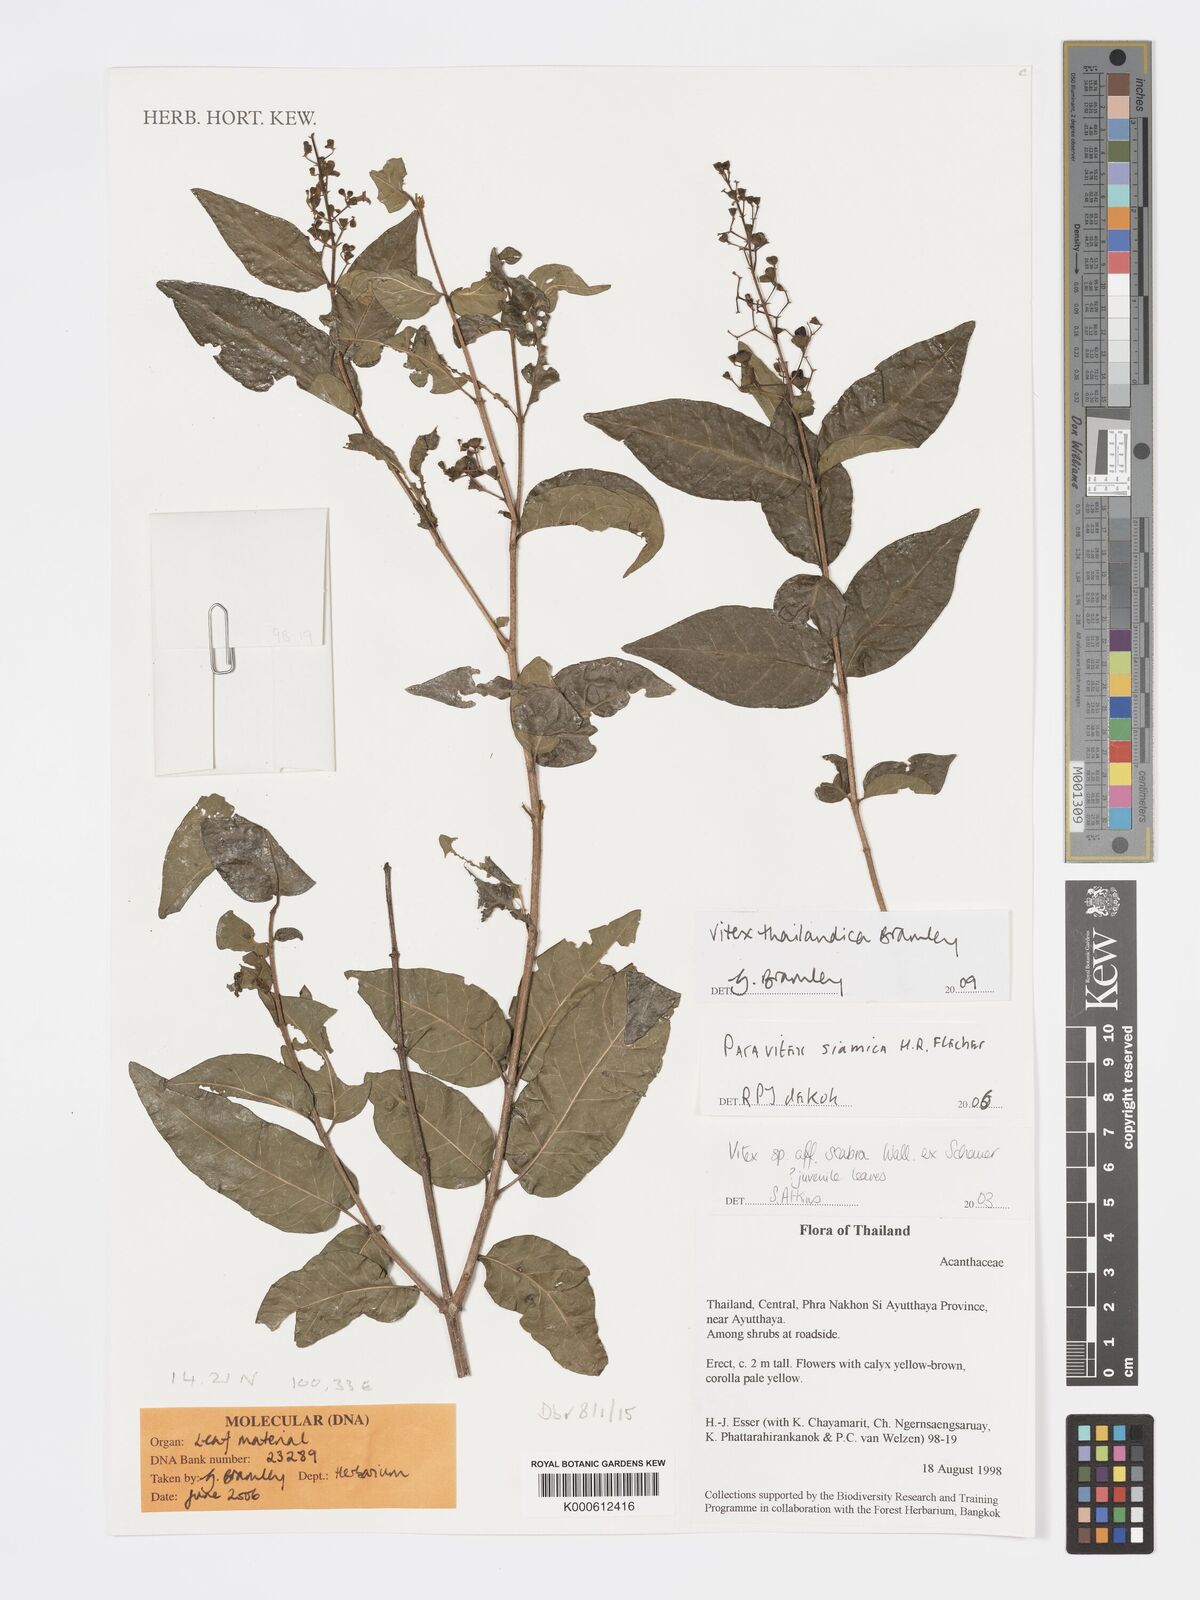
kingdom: Plantae
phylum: Tracheophyta
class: Magnoliopsida
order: Lamiales
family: Lamiaceae
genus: Vitex
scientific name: Vitex thailandica
